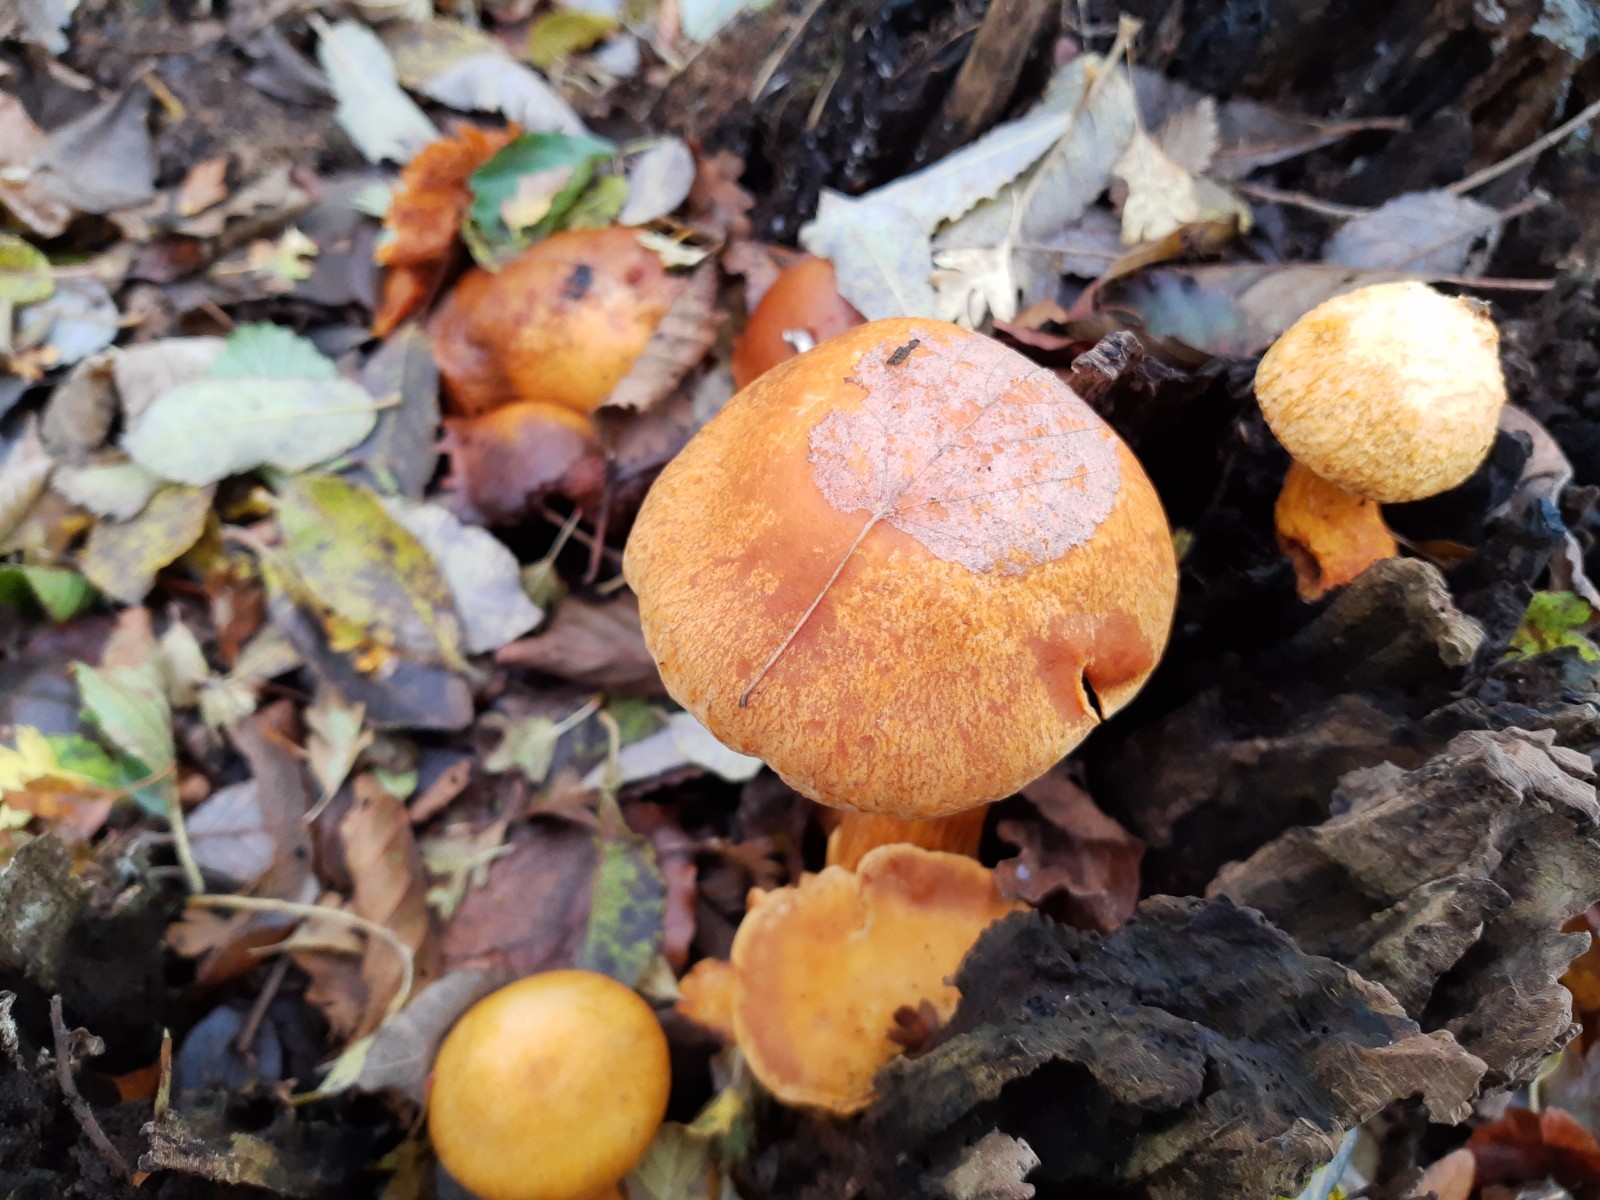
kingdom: Fungi
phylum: Basidiomycota
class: Agaricomycetes
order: Agaricales
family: Hymenogastraceae
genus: Gymnopilus
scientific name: Gymnopilus
